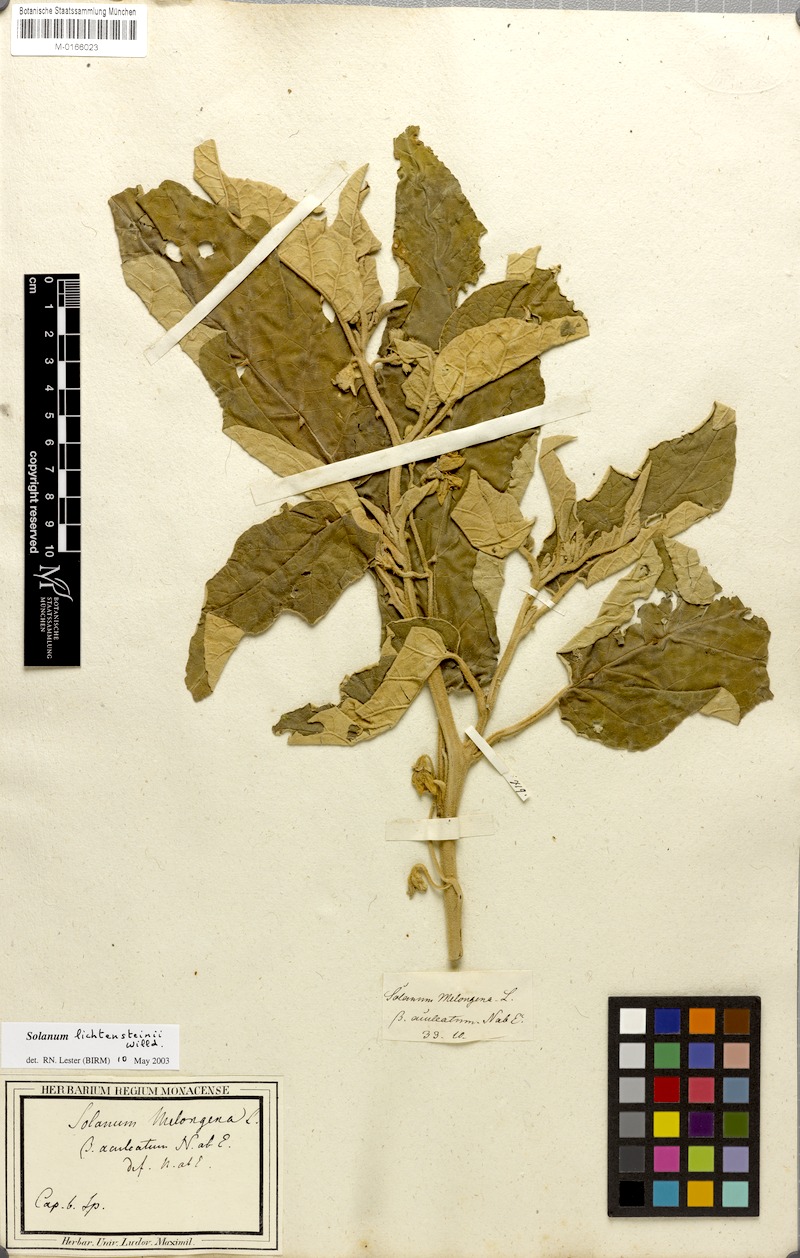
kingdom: Plantae
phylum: Tracheophyta
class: Magnoliopsida
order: Solanales
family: Solanaceae
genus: Solanum
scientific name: Solanum lichtensteinii
